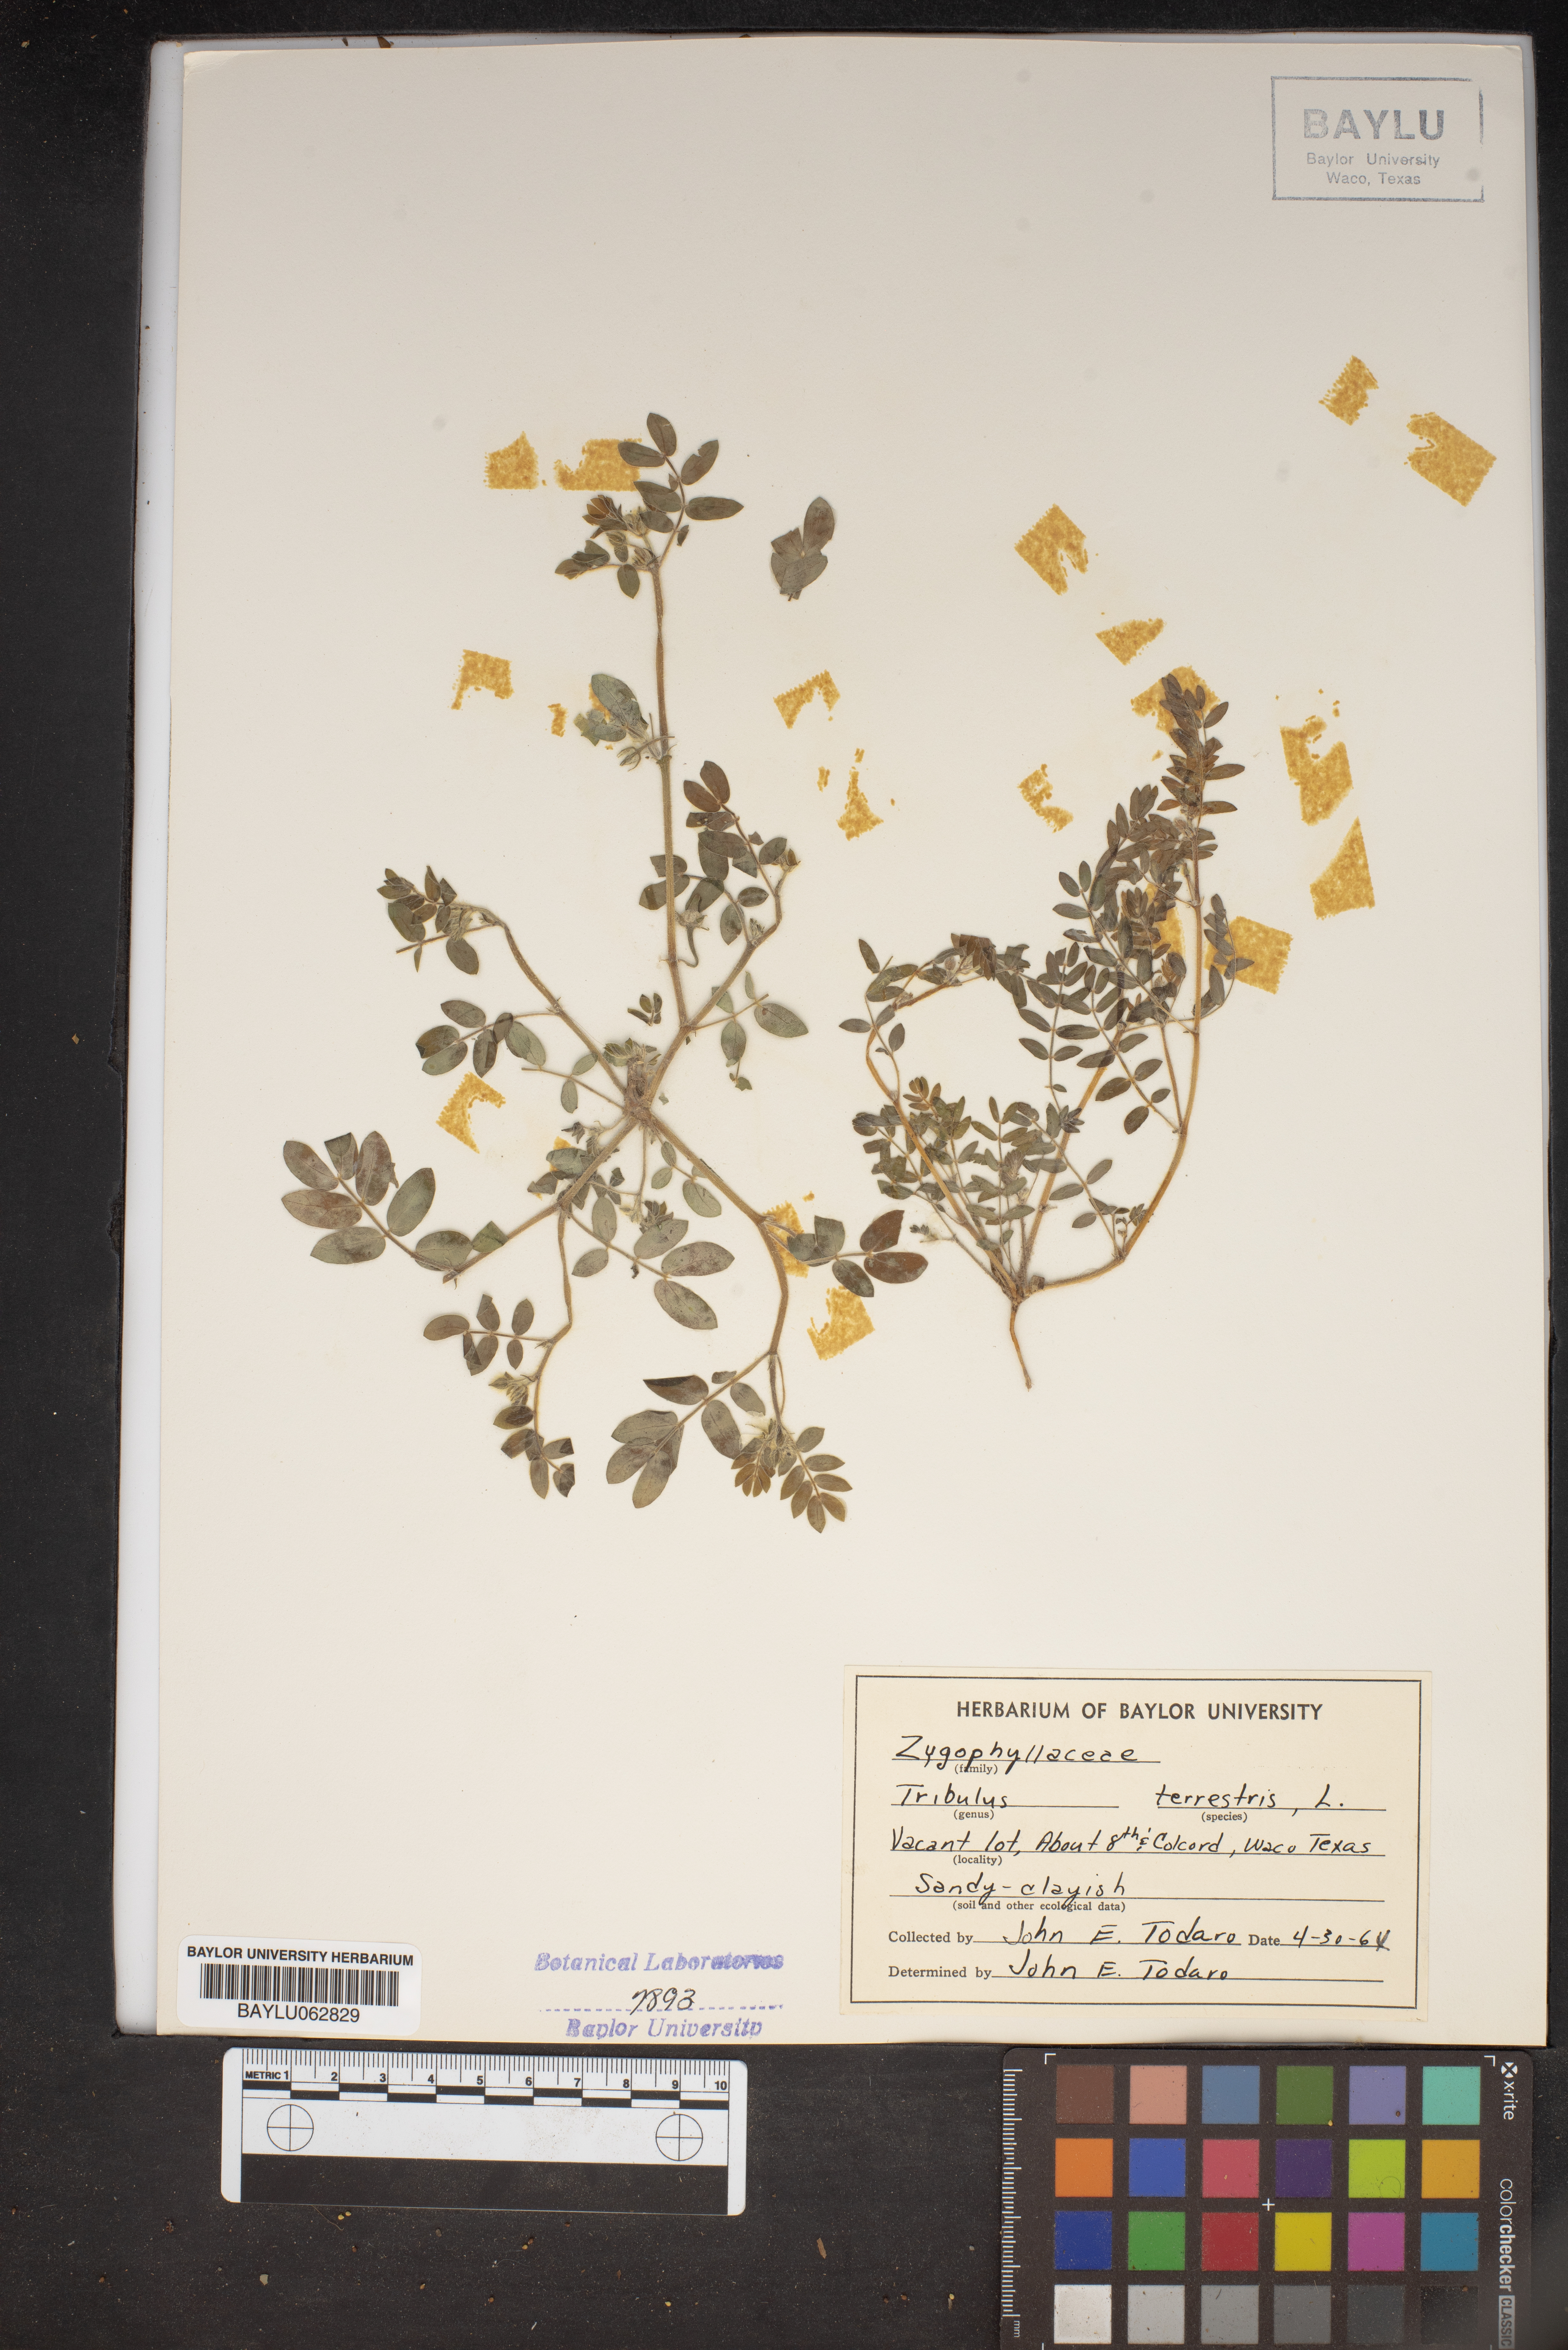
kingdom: Plantae
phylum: Tracheophyta
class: Magnoliopsida
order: Zygophyllales
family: Zygophyllaceae
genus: Tribulus
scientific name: Tribulus terrestris
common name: Puncturevine
